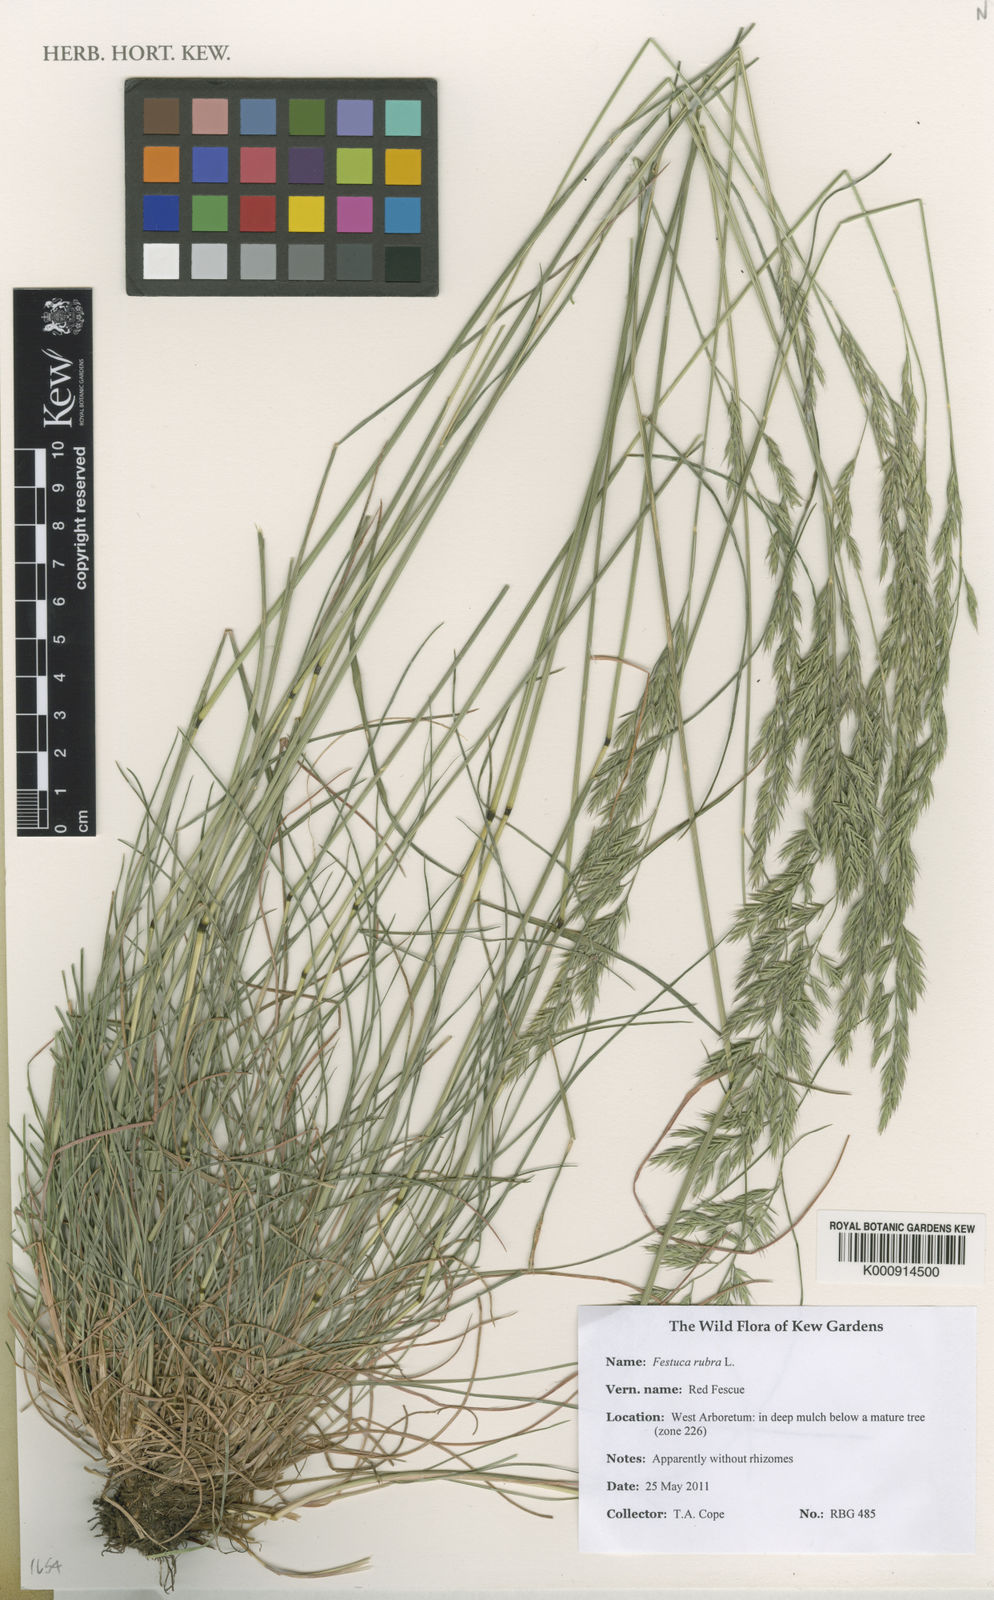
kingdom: Plantae
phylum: Tracheophyta
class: Liliopsida
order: Poales
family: Poaceae
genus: Festuca
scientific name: Festuca rubra
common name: Red fescue
